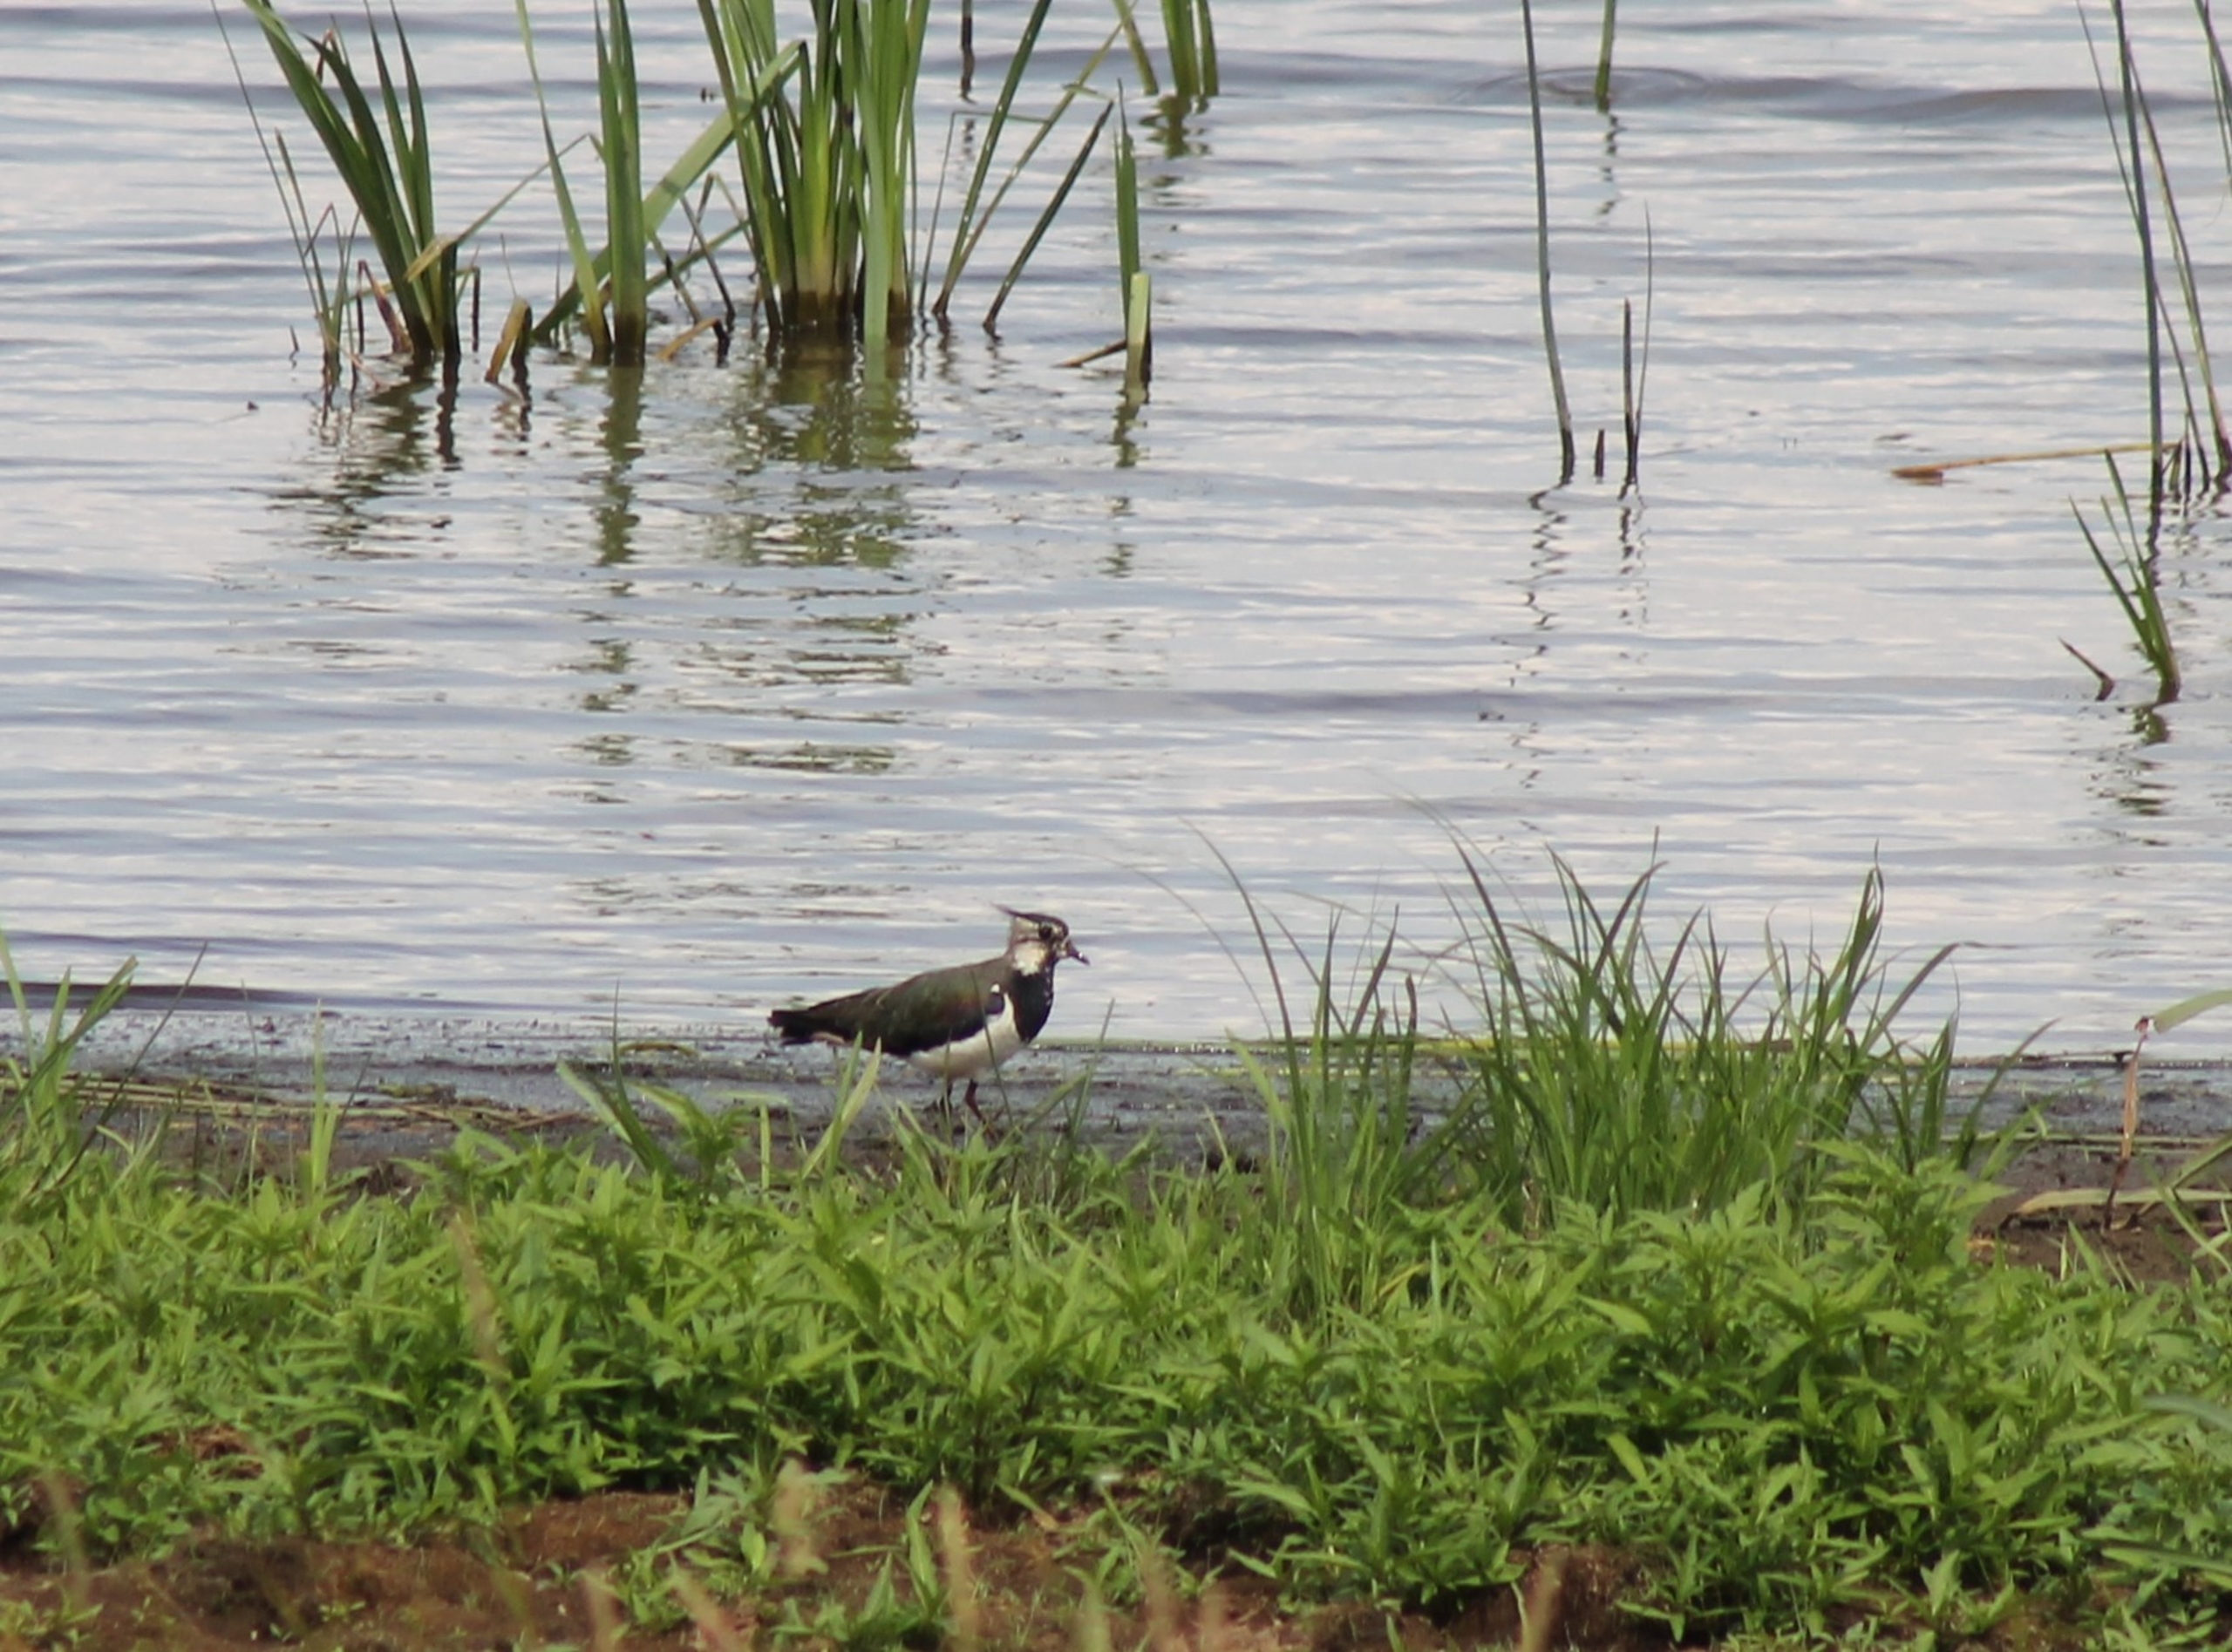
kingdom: Animalia
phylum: Chordata
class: Aves
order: Charadriiformes
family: Charadriidae
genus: Vanellus
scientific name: Vanellus vanellus
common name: Vibe
